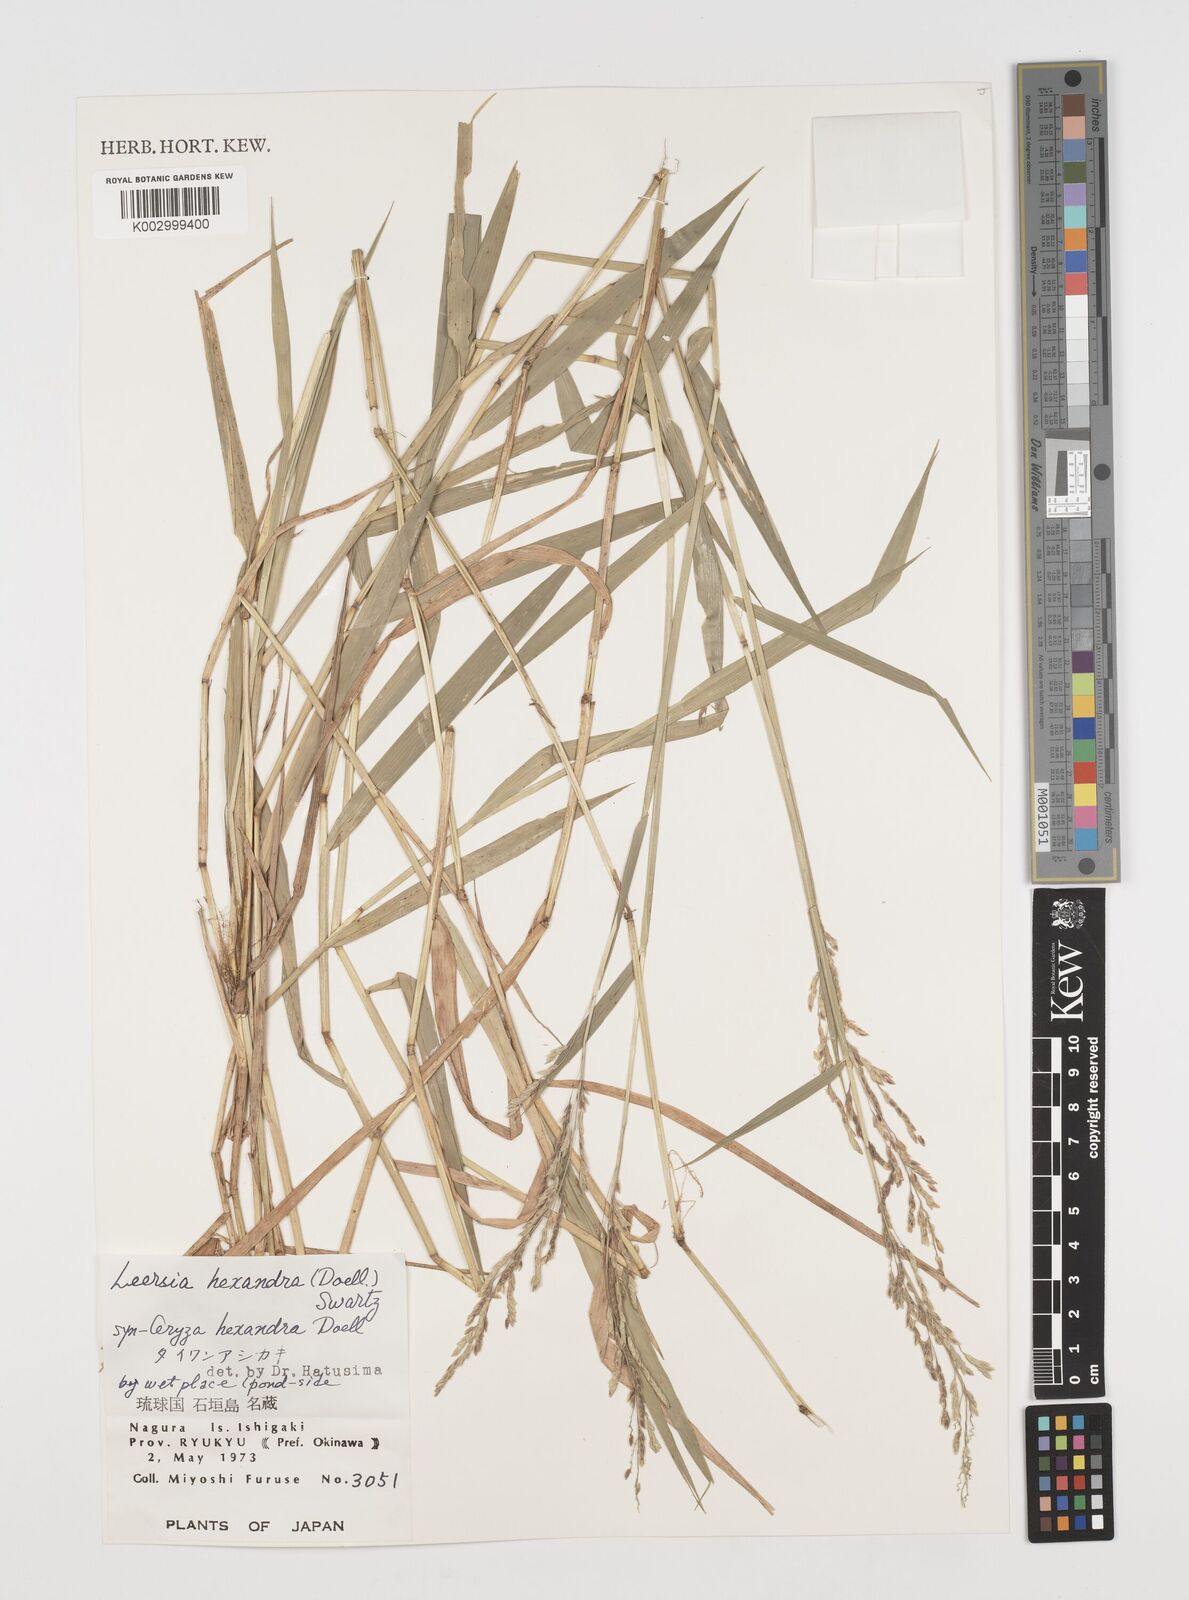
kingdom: Plantae
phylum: Tracheophyta
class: Liliopsida
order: Poales
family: Poaceae
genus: Leersia
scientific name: Leersia hexandra
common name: Southern cut grass
